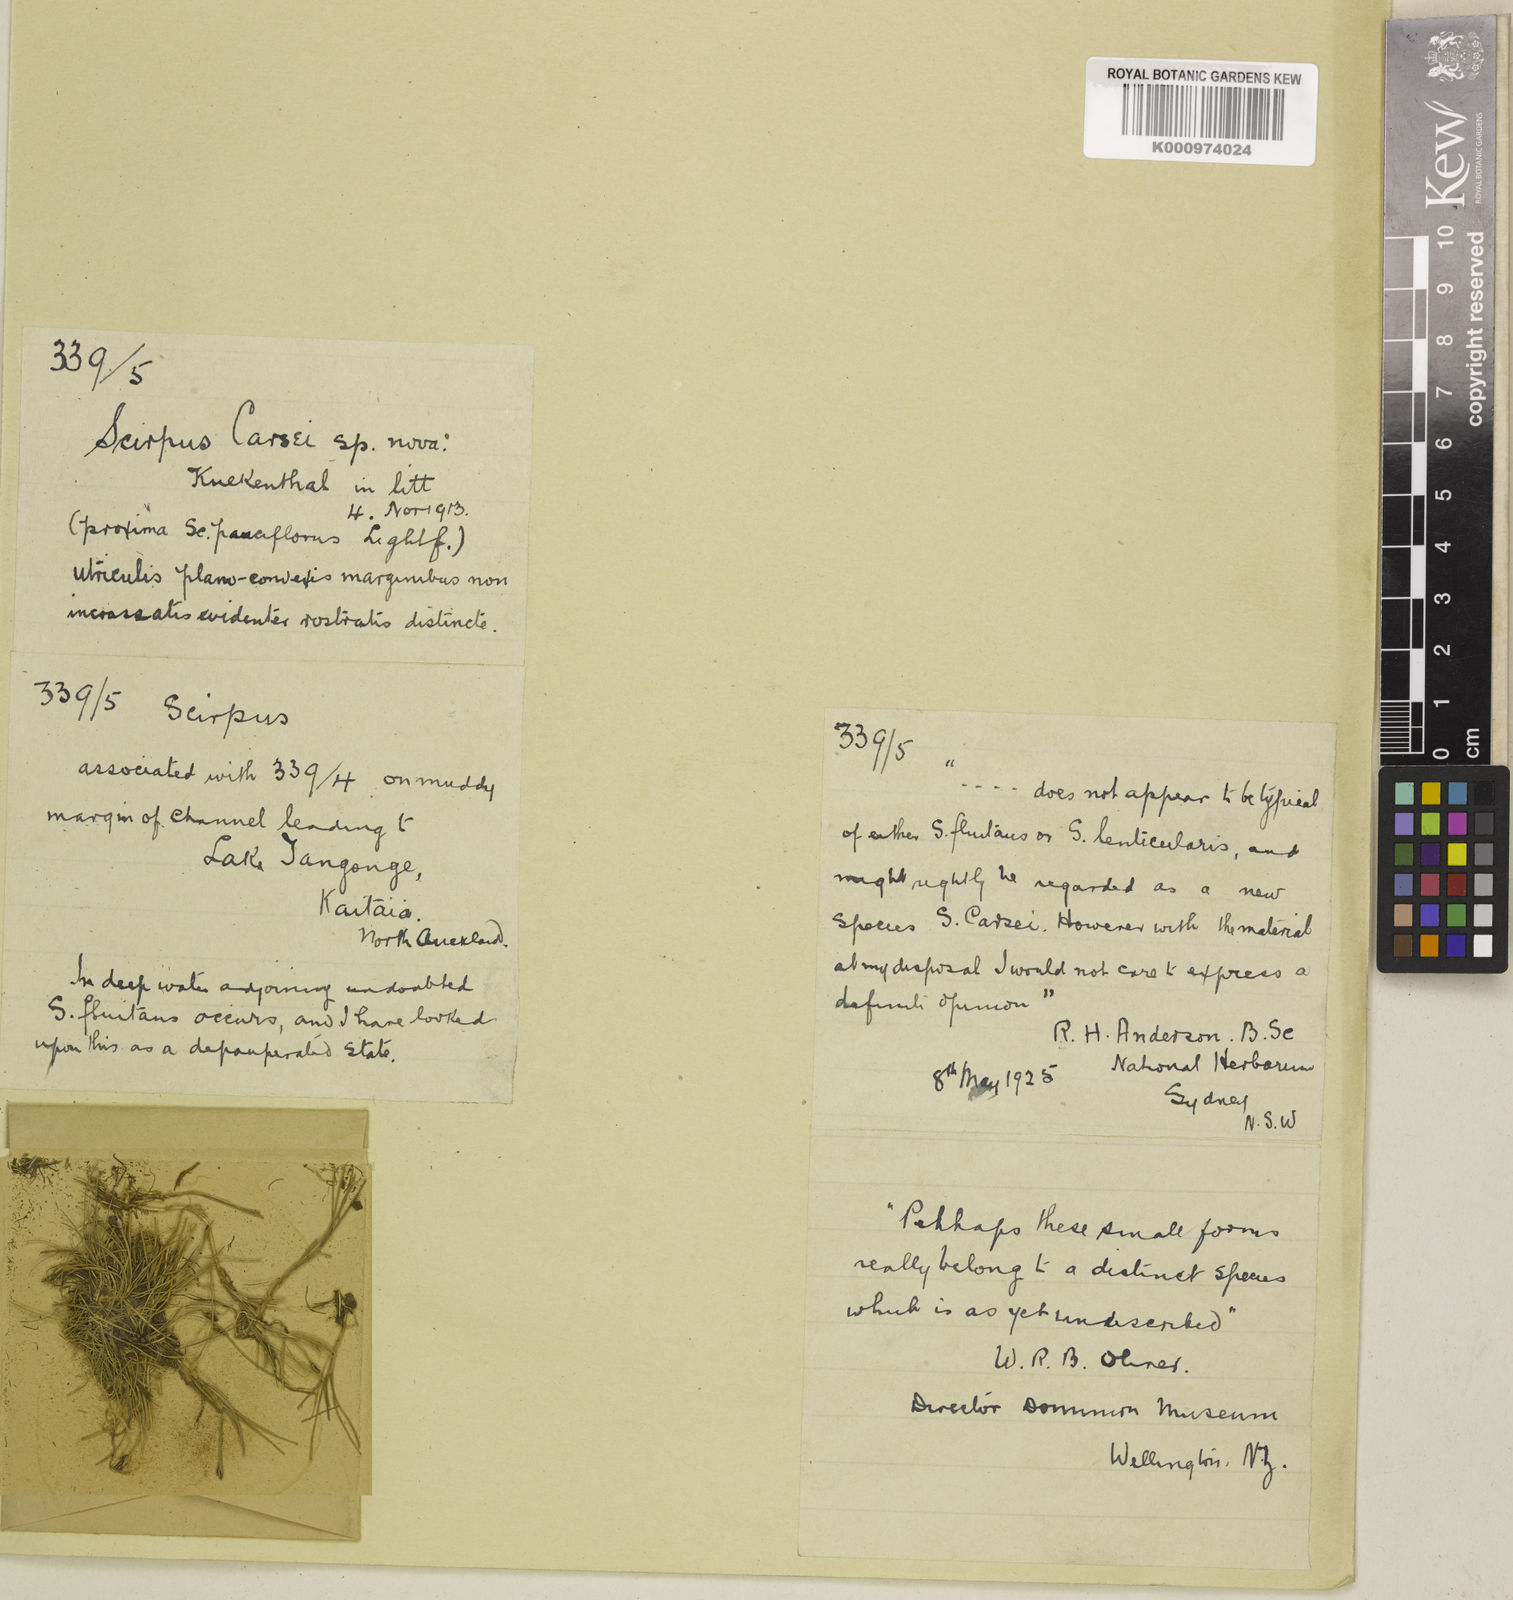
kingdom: Plantae
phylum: Tracheophyta
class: Liliopsida
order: Poales
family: Cyperaceae
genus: Isolepis
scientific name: Isolepis fluitans
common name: Floating club-rush
